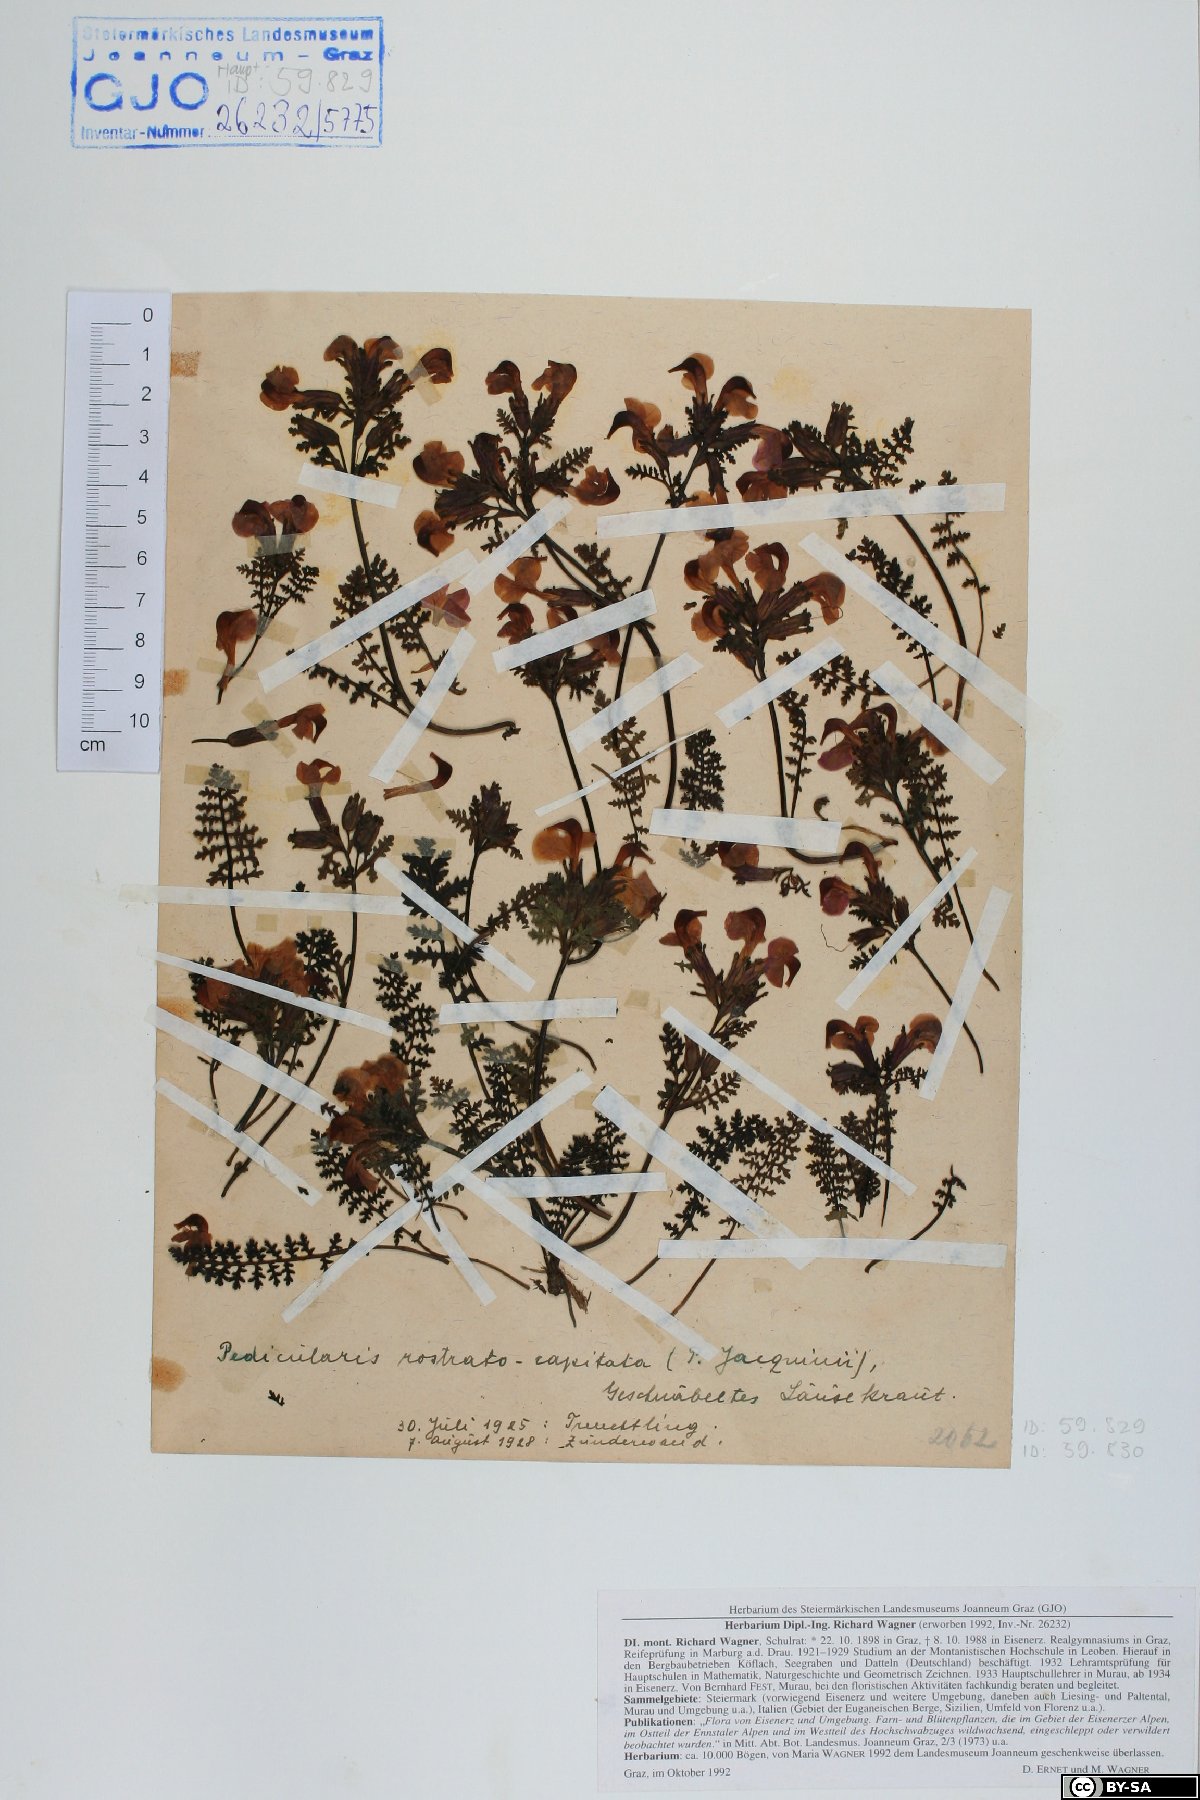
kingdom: Plantae
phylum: Tracheophyta
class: Magnoliopsida
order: Lamiales
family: Orobanchaceae
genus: Pedicularis
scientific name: Pedicularis rostratocapitata
